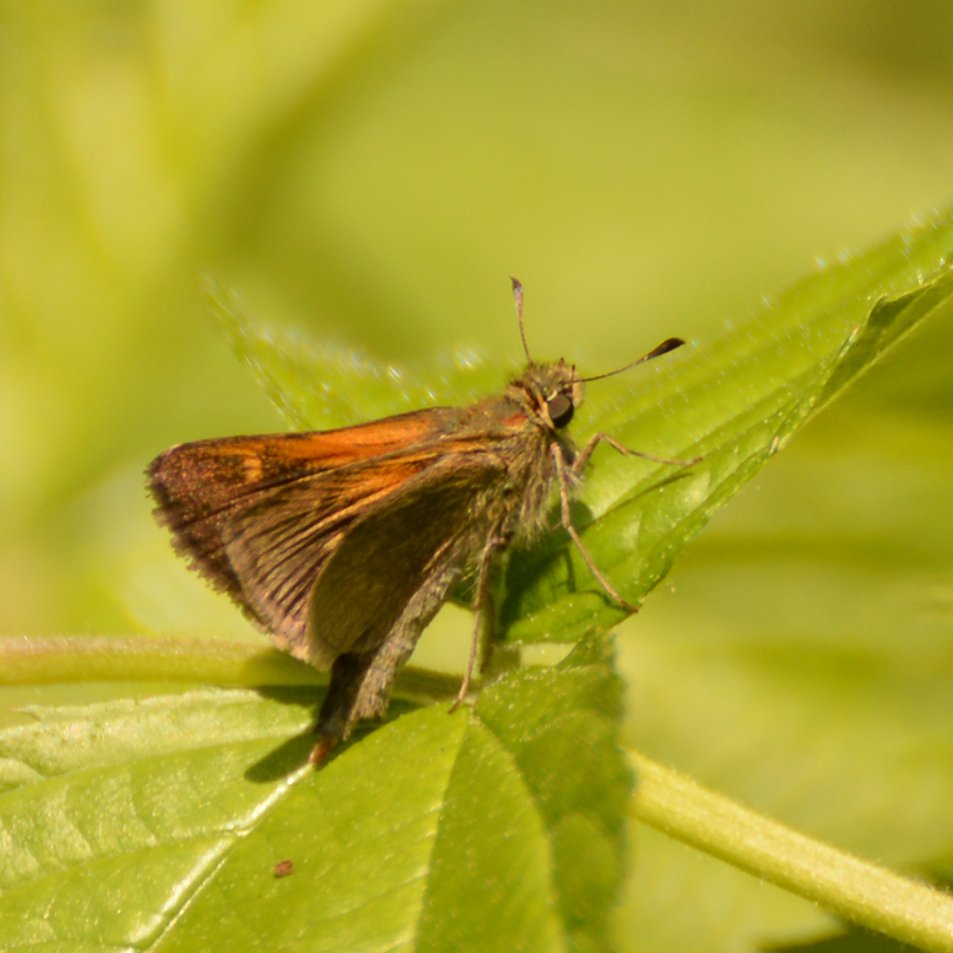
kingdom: Animalia
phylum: Arthropoda
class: Insecta
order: Lepidoptera
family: Hesperiidae
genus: Polites
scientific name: Polites themistocles
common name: Tawny-edged Skipper
